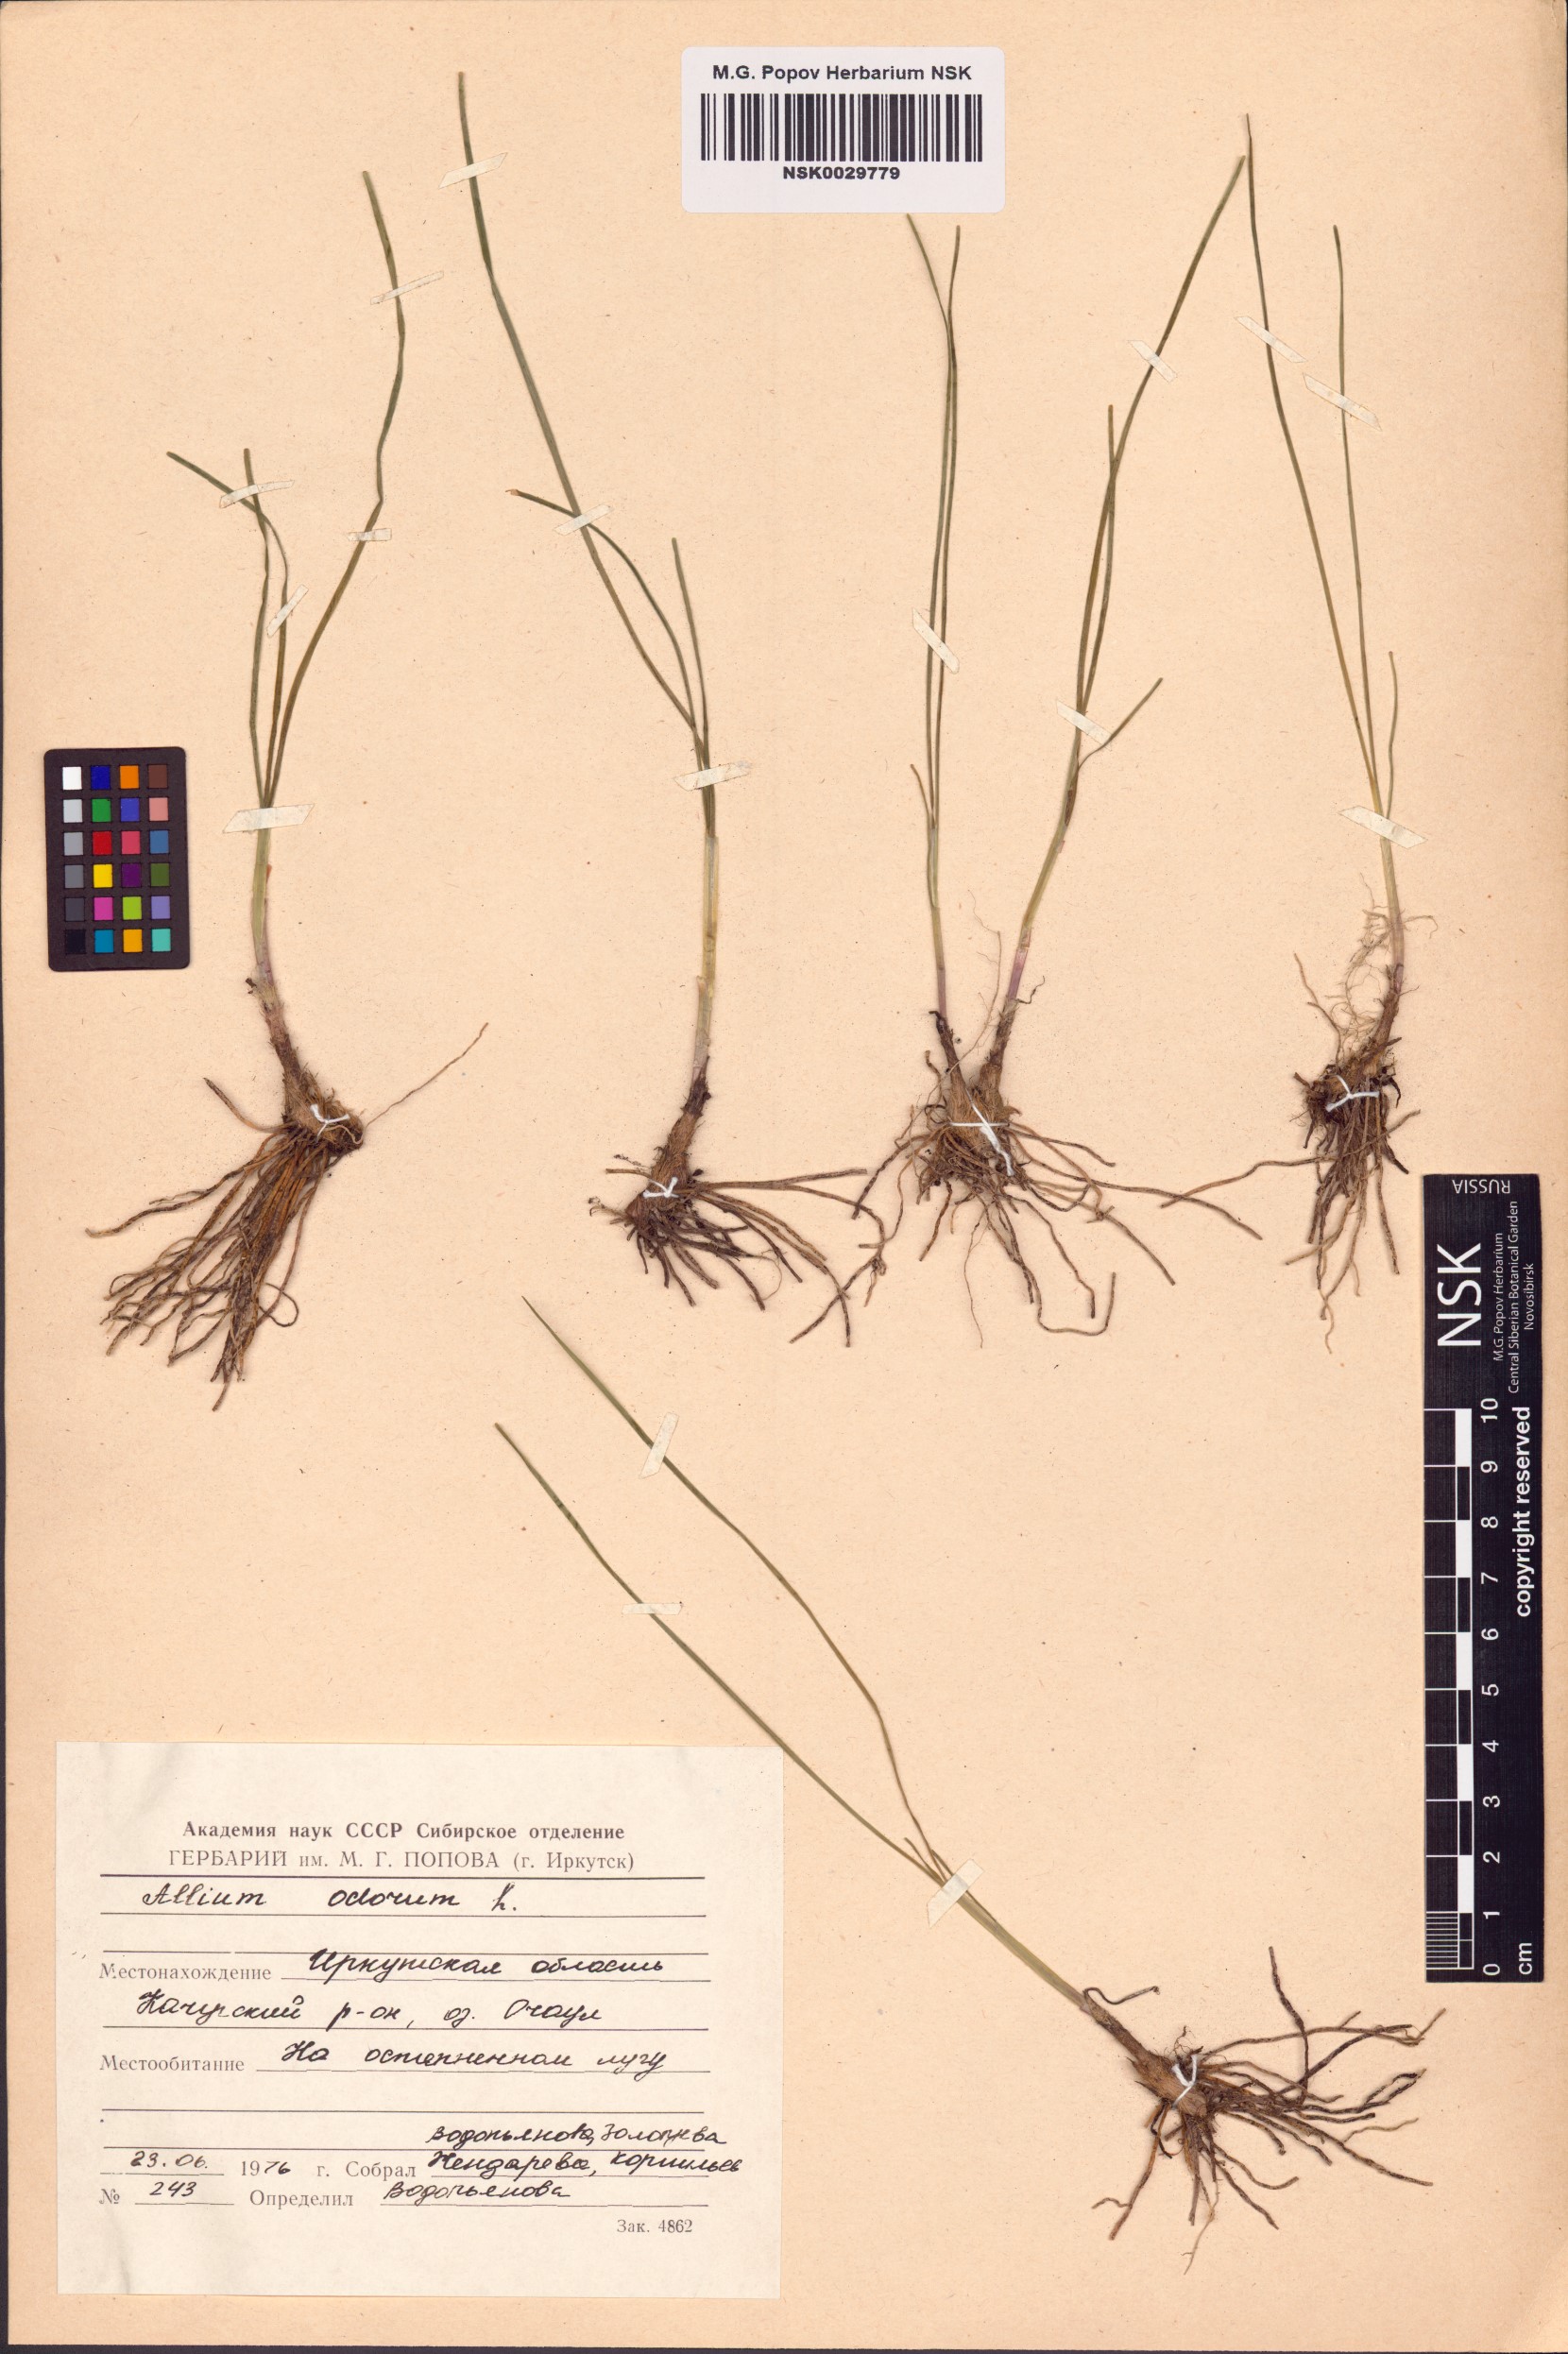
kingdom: Plantae
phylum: Tracheophyta
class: Liliopsida
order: Asparagales
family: Amaryllidaceae
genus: Allium
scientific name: Allium ramosum
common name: Fragrant garlic
